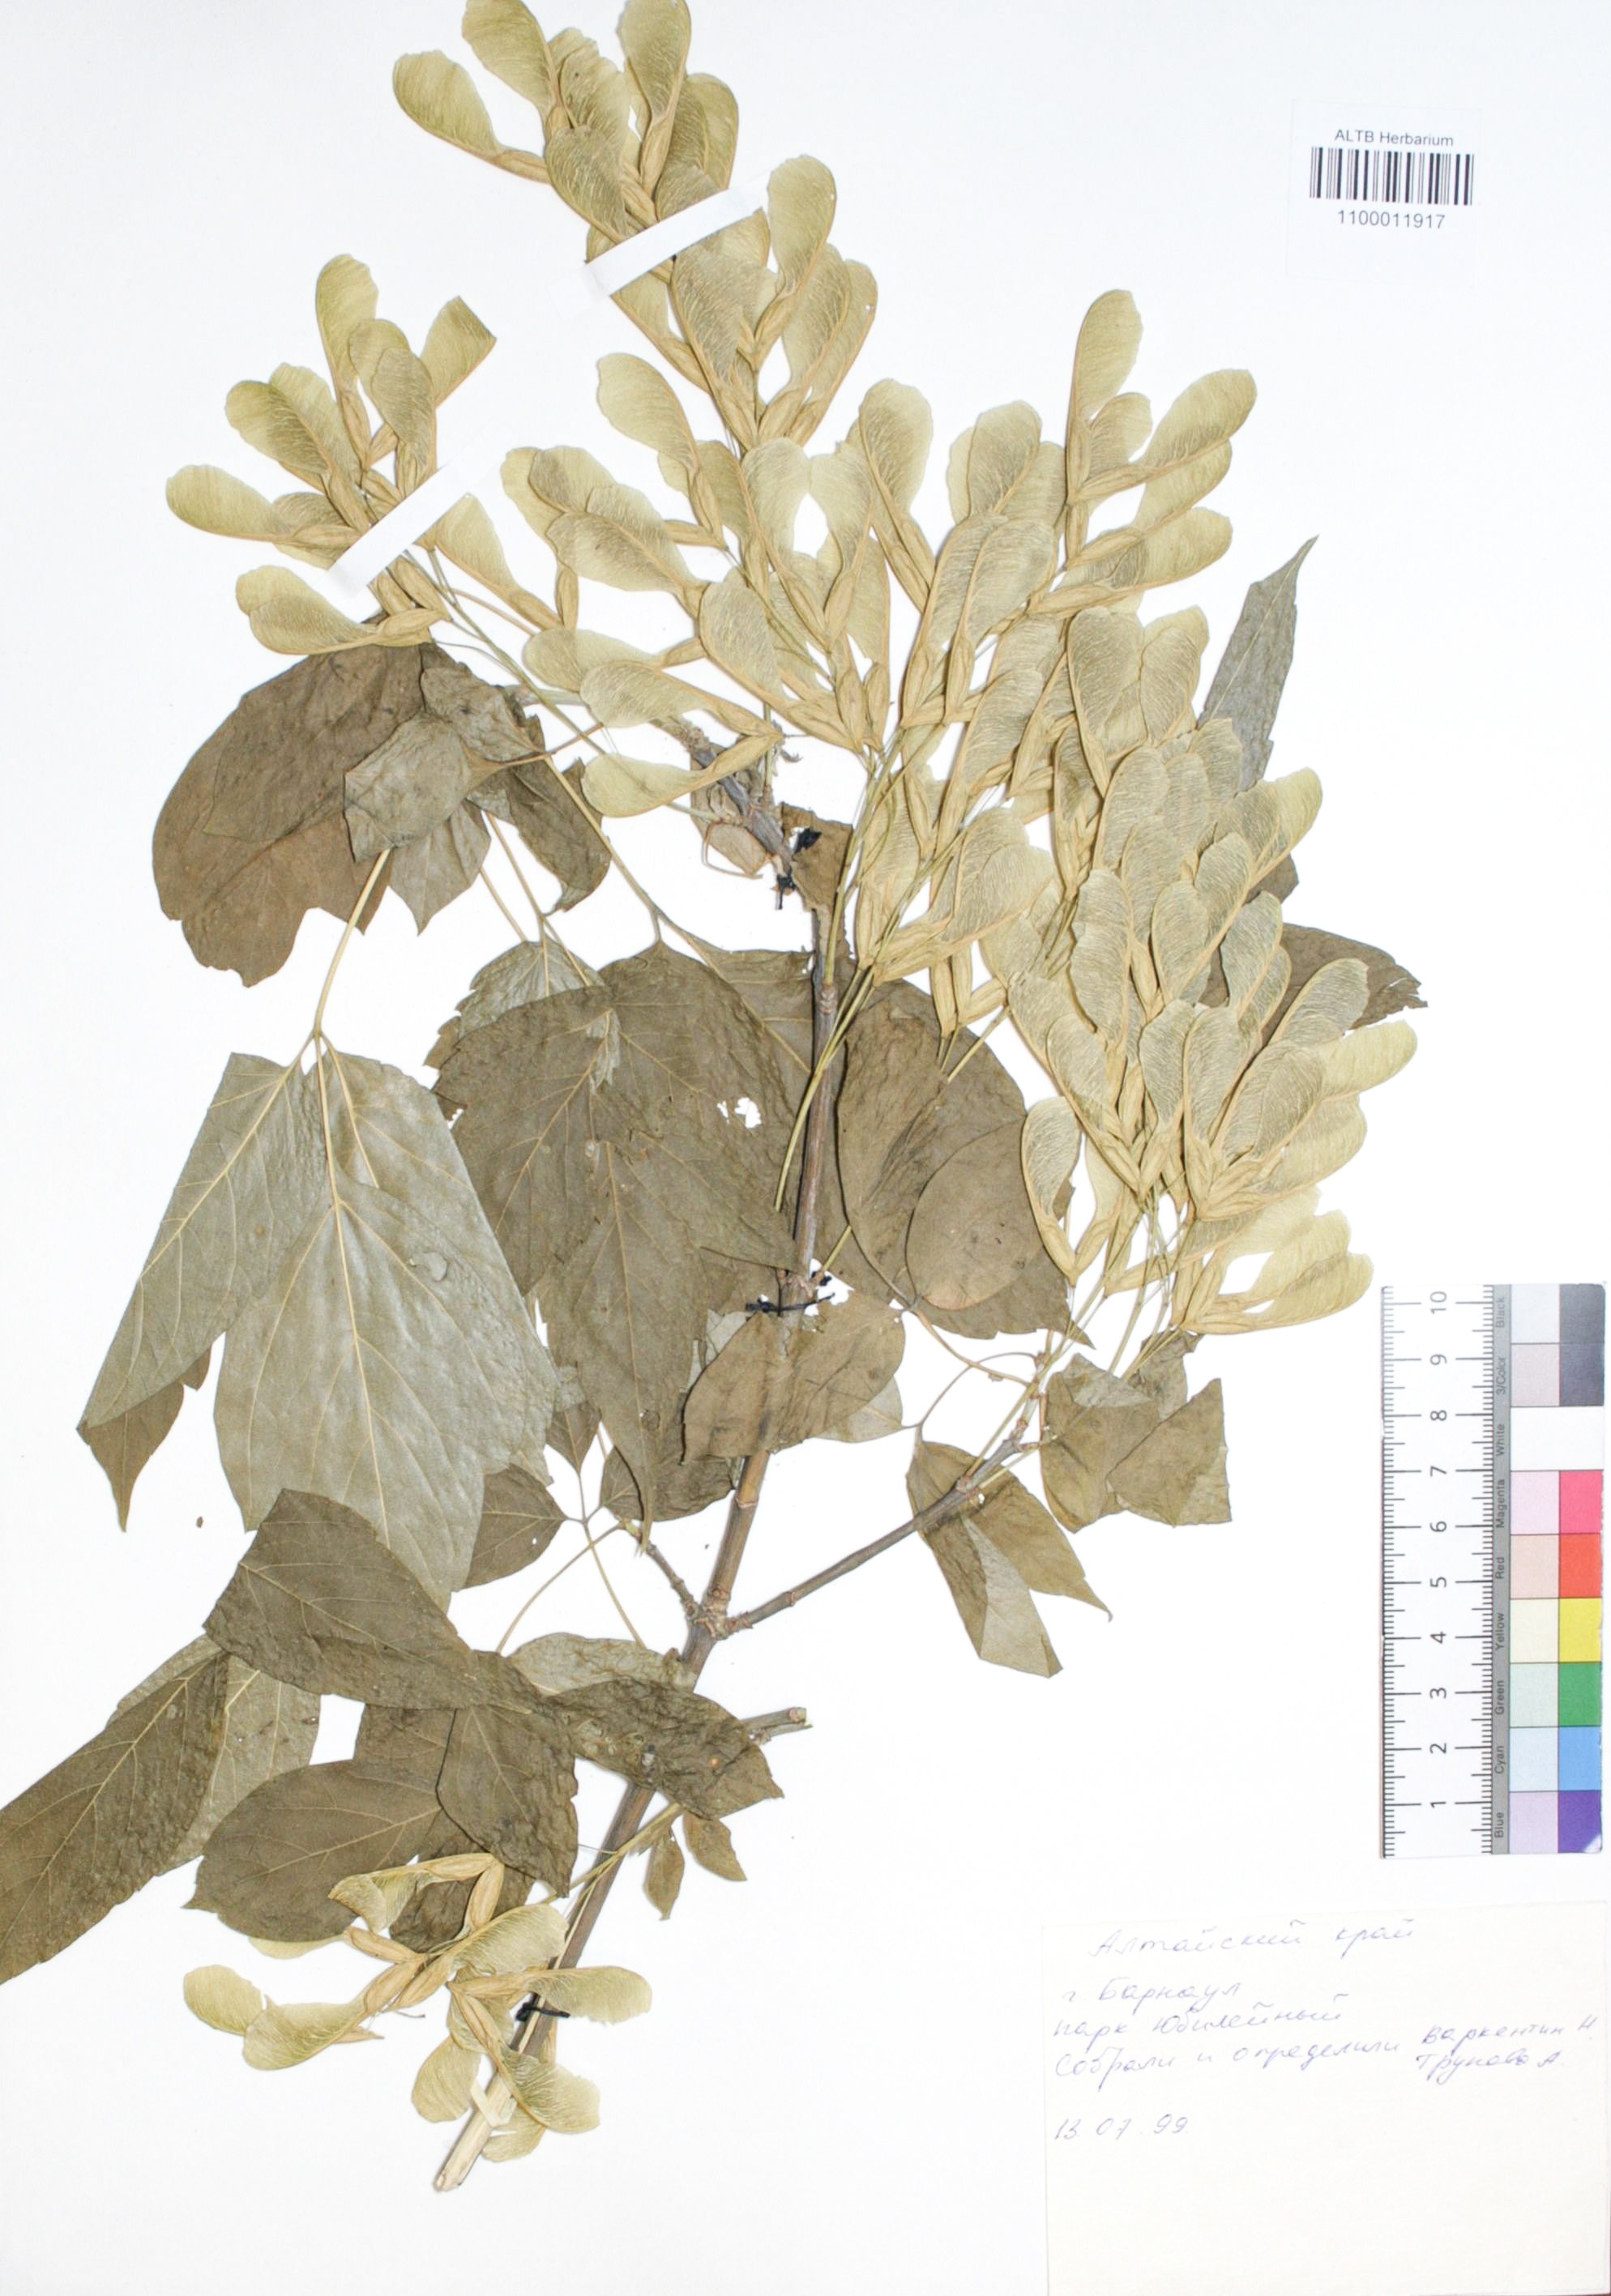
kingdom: Plantae
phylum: Tracheophyta
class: Magnoliopsida
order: Sapindales
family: Sapindaceae
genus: Acer
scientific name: Acer negundo
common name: Ashleaf maple
